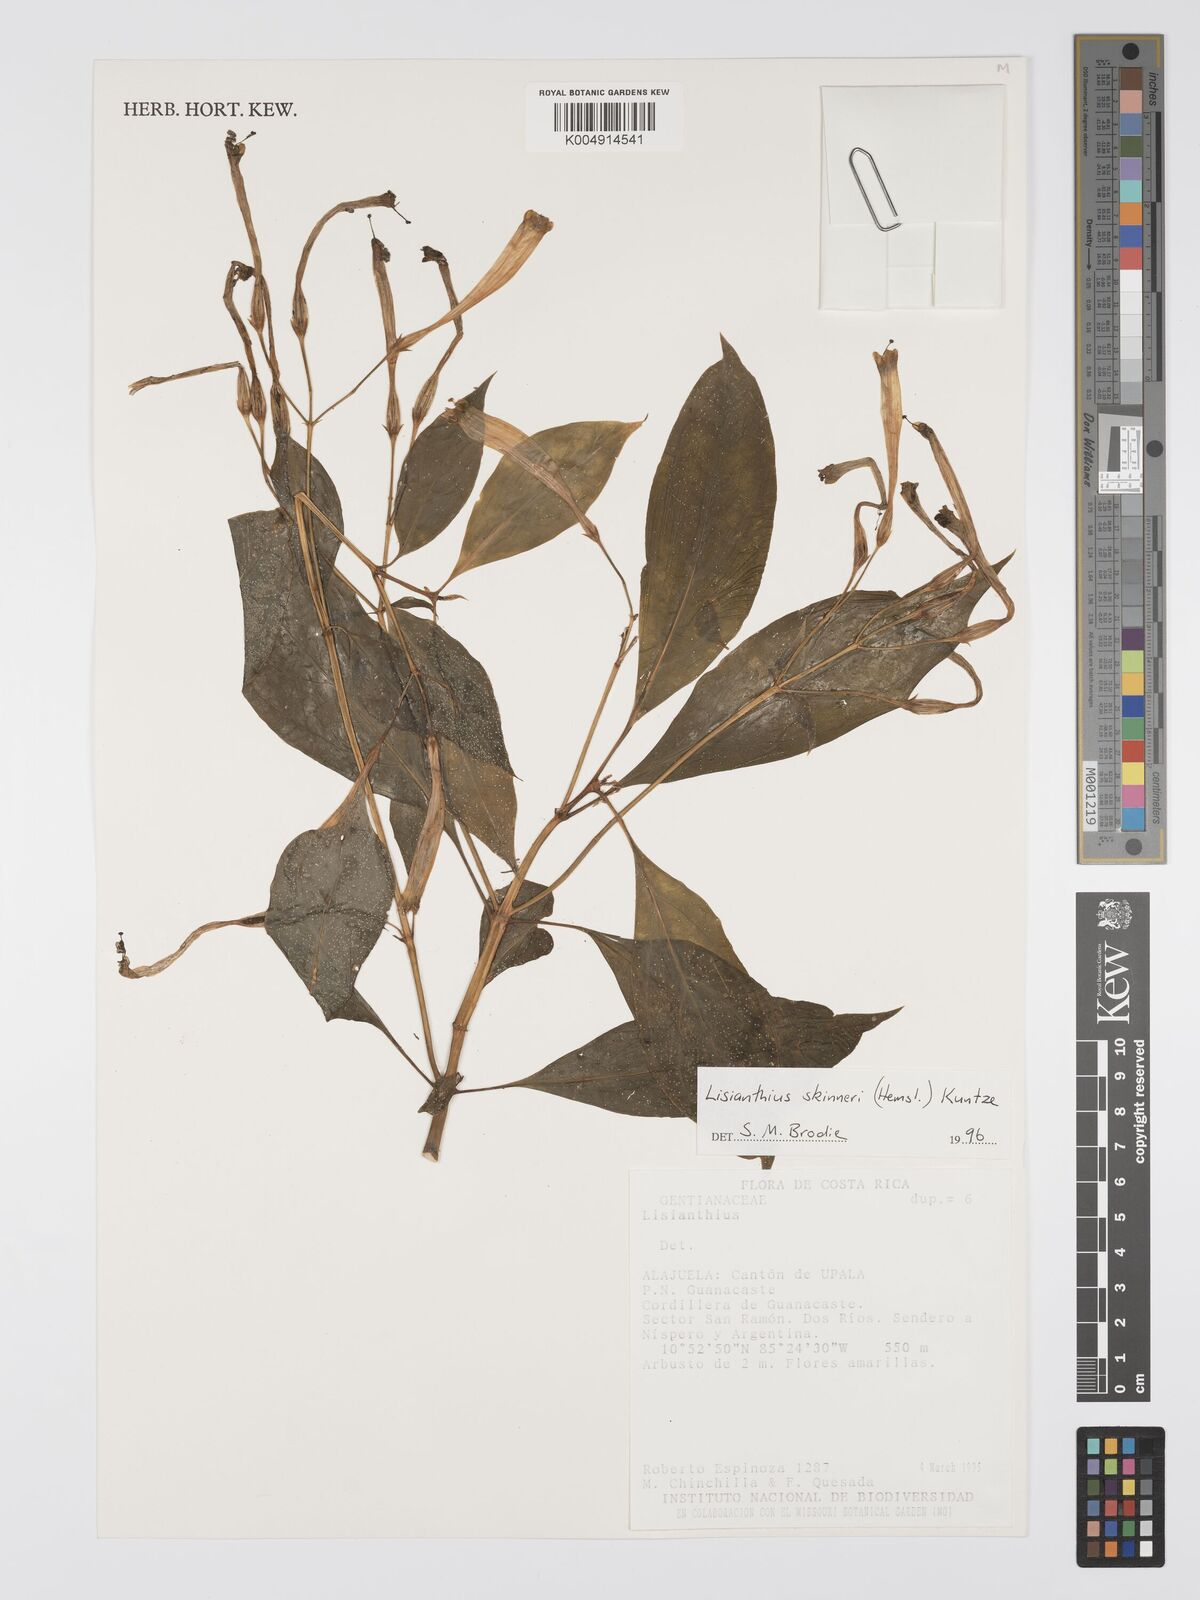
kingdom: Plantae
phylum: Tracheophyta
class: Magnoliopsida
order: Gentianales
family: Gentianaceae
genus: Lisianthus
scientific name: Lisianthus skinneri
